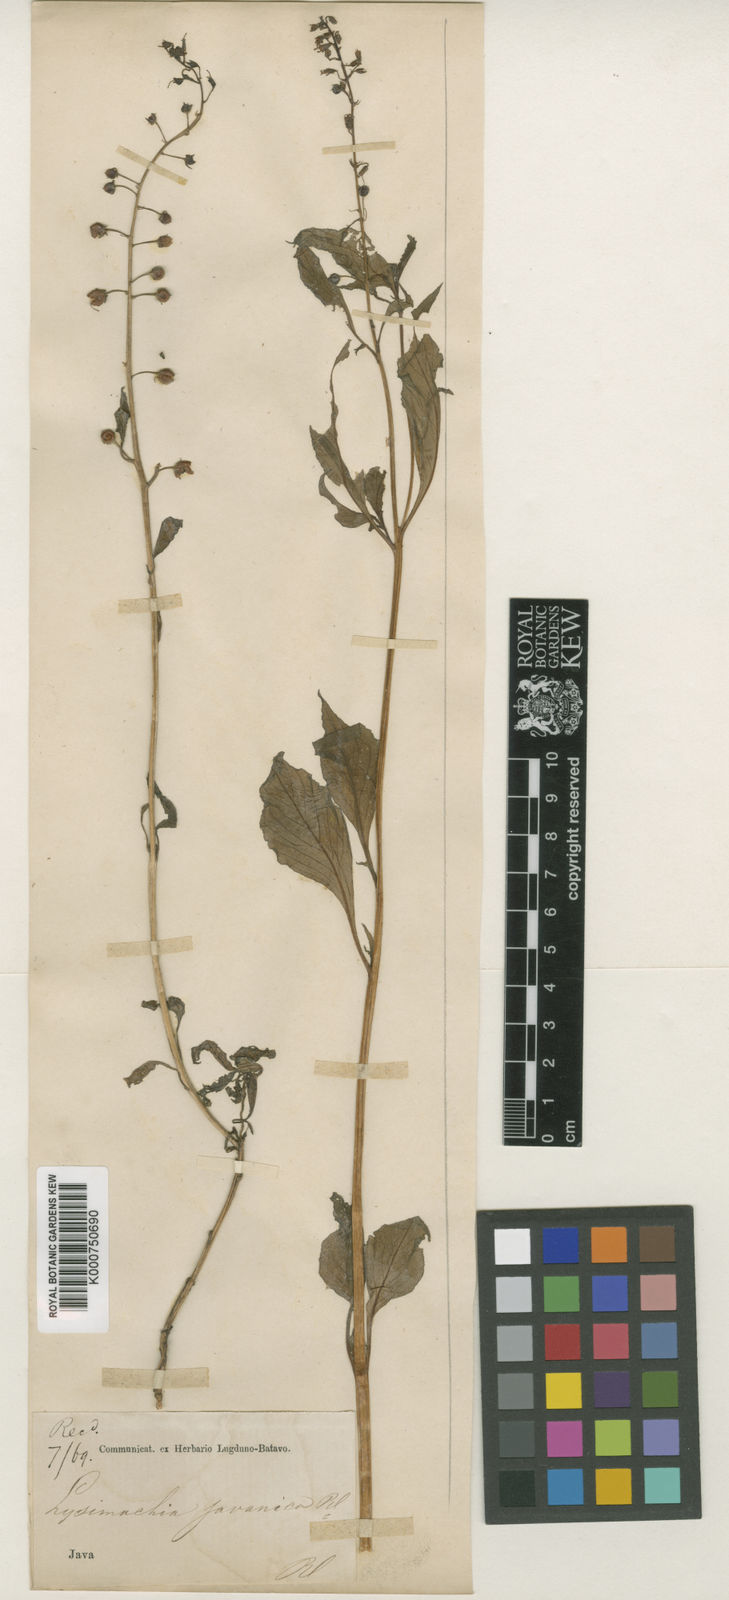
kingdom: Plantae
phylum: Tracheophyta
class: Magnoliopsida
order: Ericales
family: Primulaceae
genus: Lysimachia
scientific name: Lysimachia decurrens
